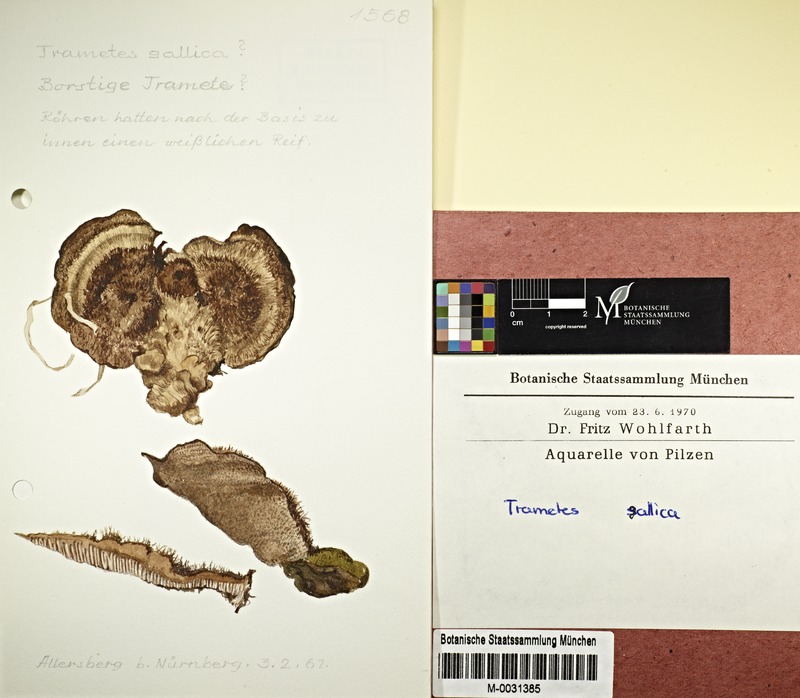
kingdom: Fungi
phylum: Basidiomycota
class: Agaricomycetes
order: Polyporales
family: Polyporaceae
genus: Coriolopsis
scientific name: Coriolopsis gallica
